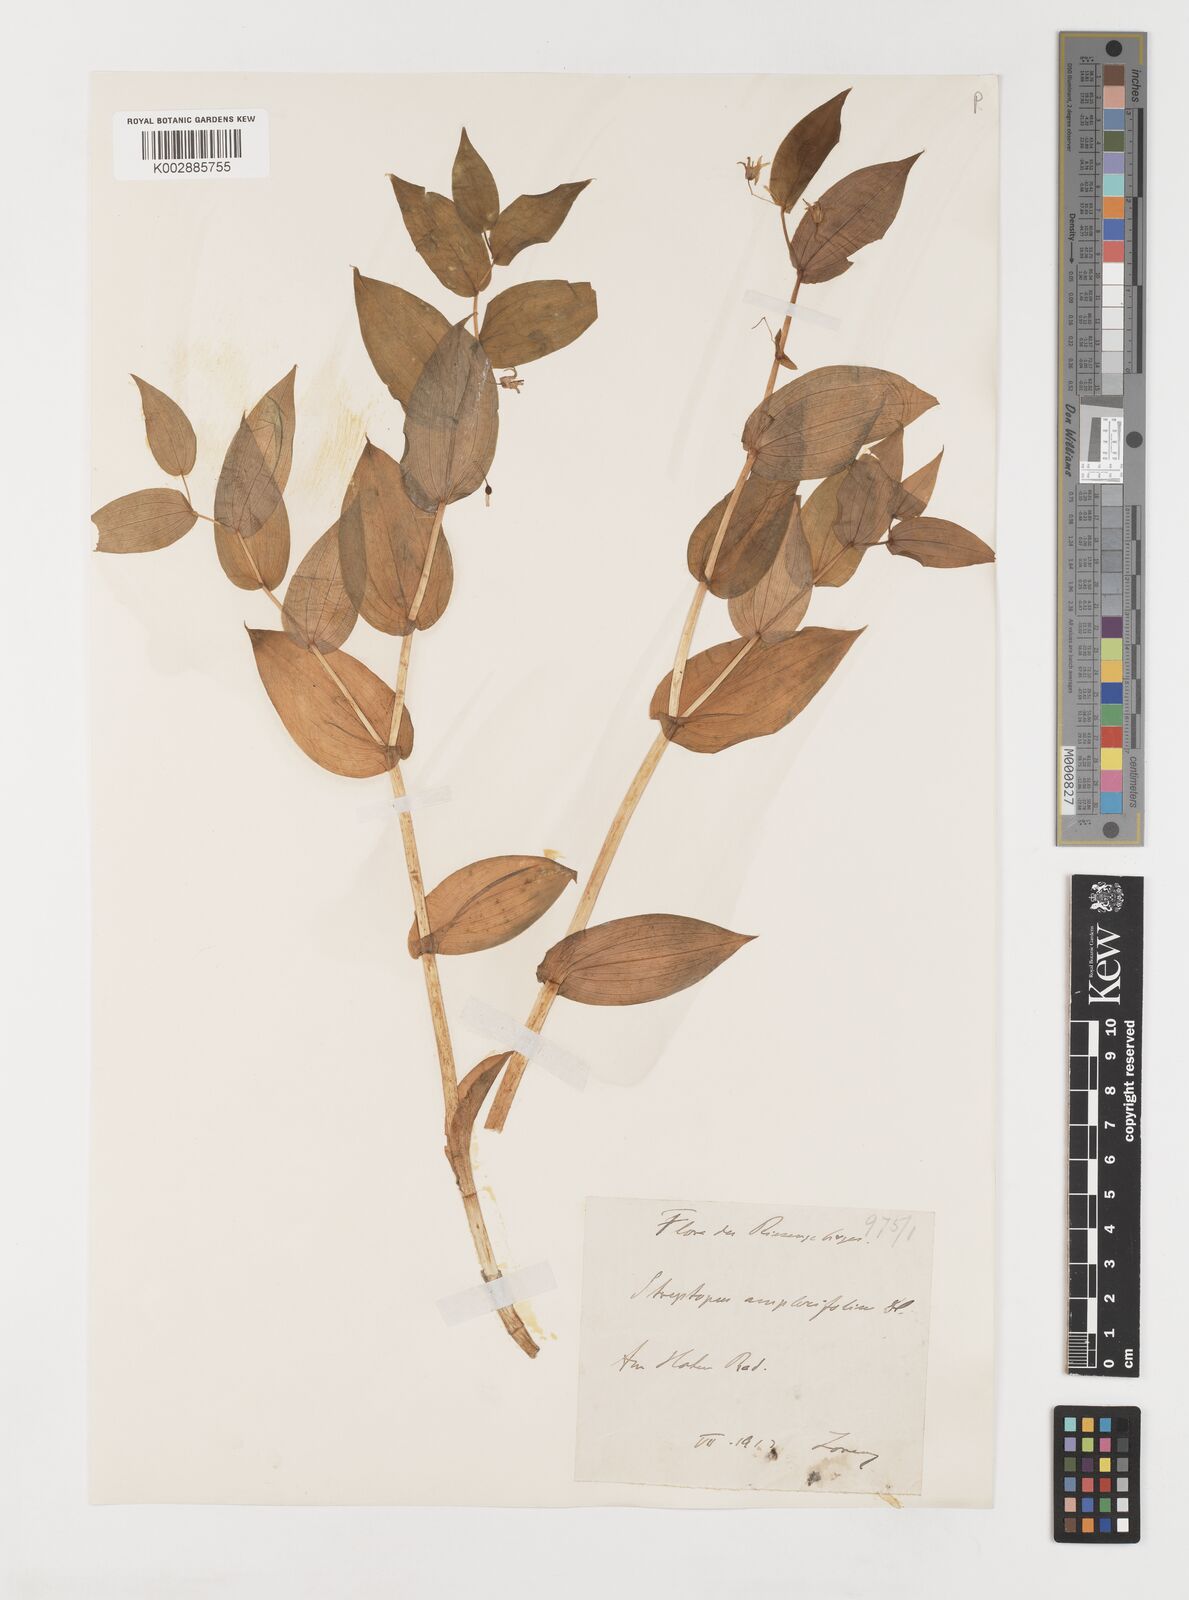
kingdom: Plantae
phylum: Tracheophyta
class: Liliopsida
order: Liliales
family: Liliaceae
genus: Streptopus
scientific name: Streptopus amplexifolius
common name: Clasp twisted stalk
